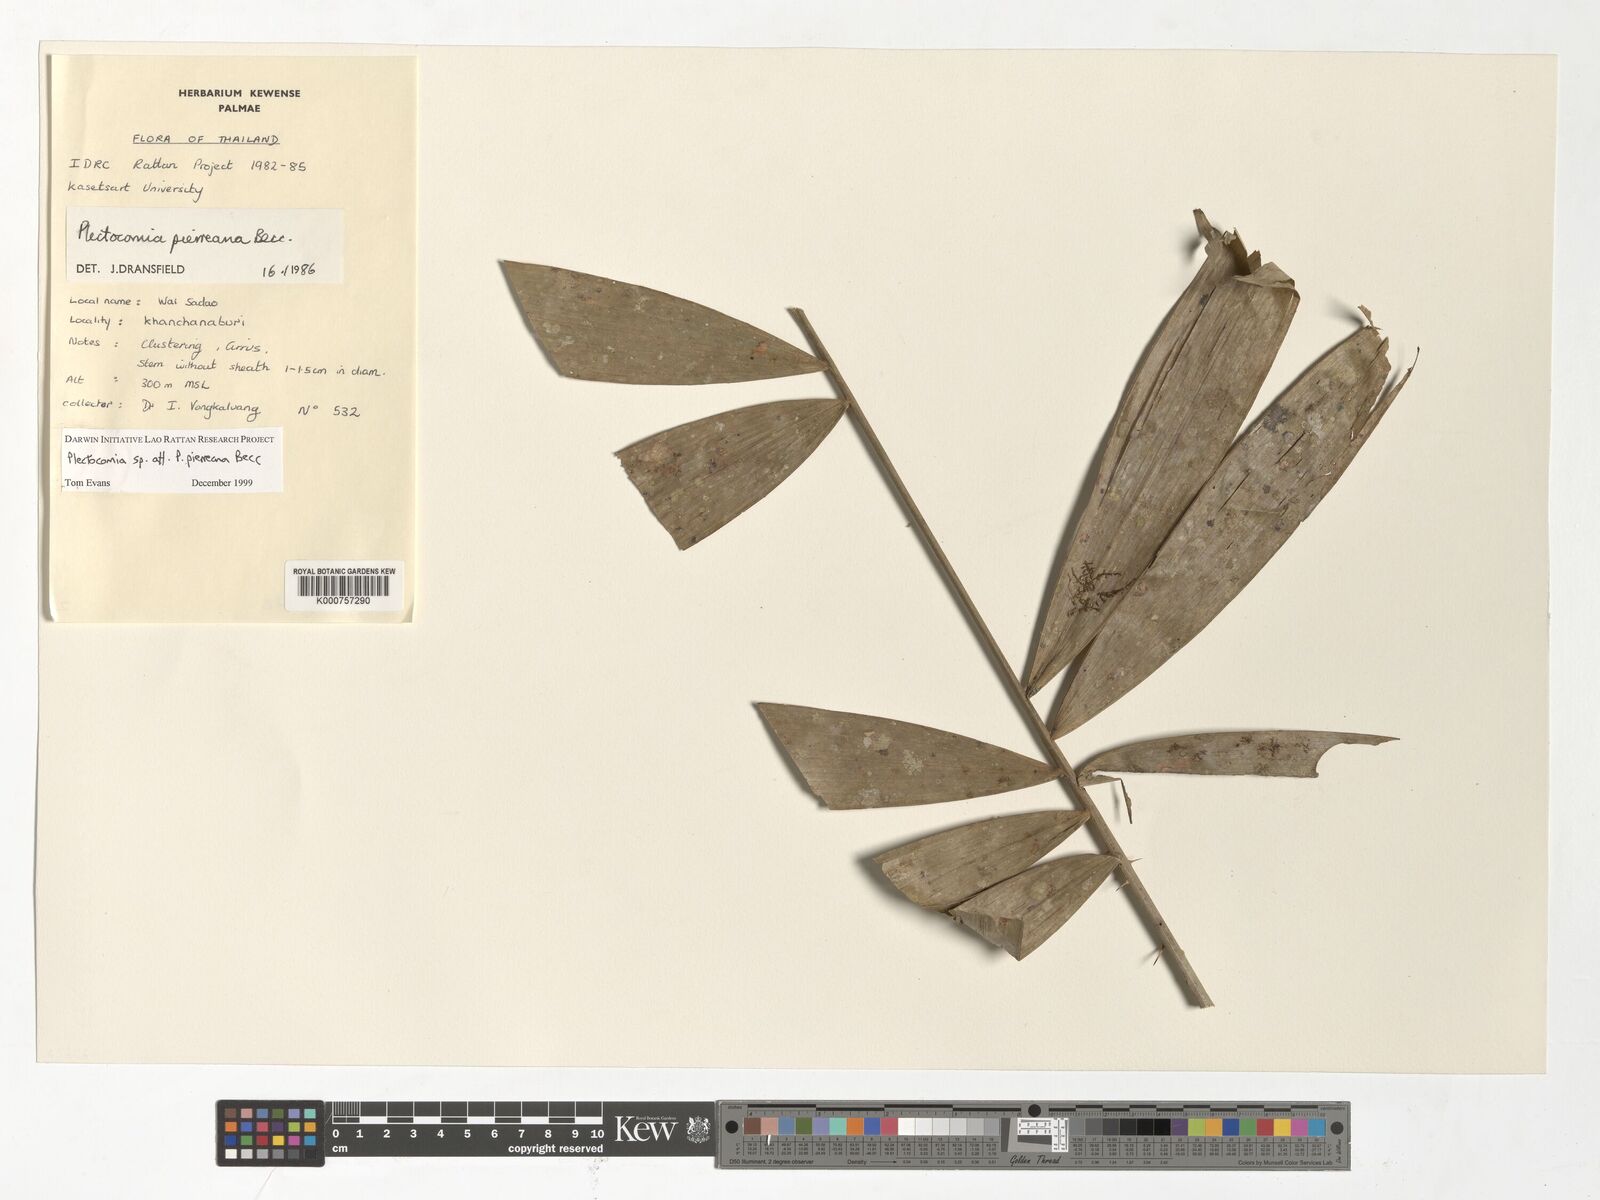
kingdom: Plantae
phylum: Tracheophyta
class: Liliopsida
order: Arecales
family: Arecaceae
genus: Plectocomia
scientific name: Plectocomia pierreana
